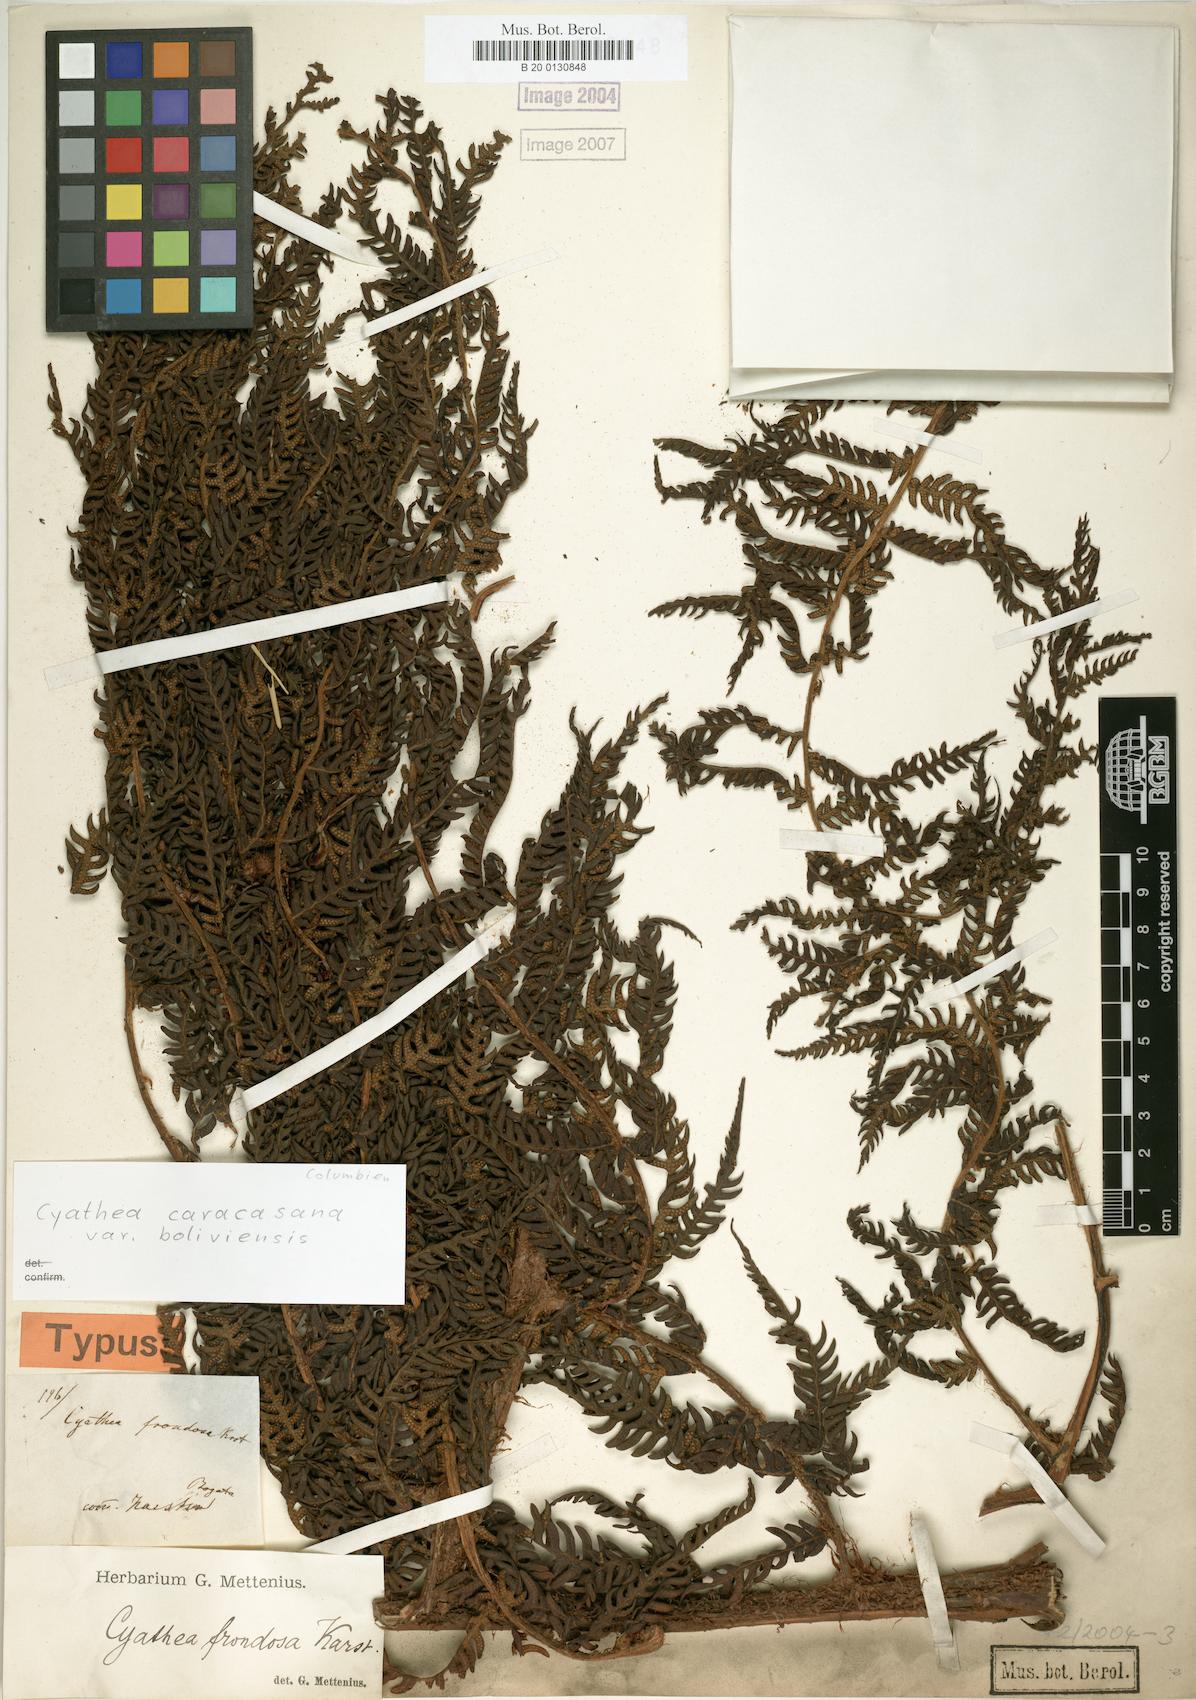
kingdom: Plantae
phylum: Tracheophyta
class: Polypodiopsida
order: Cyatheales
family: Cyatheaceae
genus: Cyathea
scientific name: Cyathea frondosa
